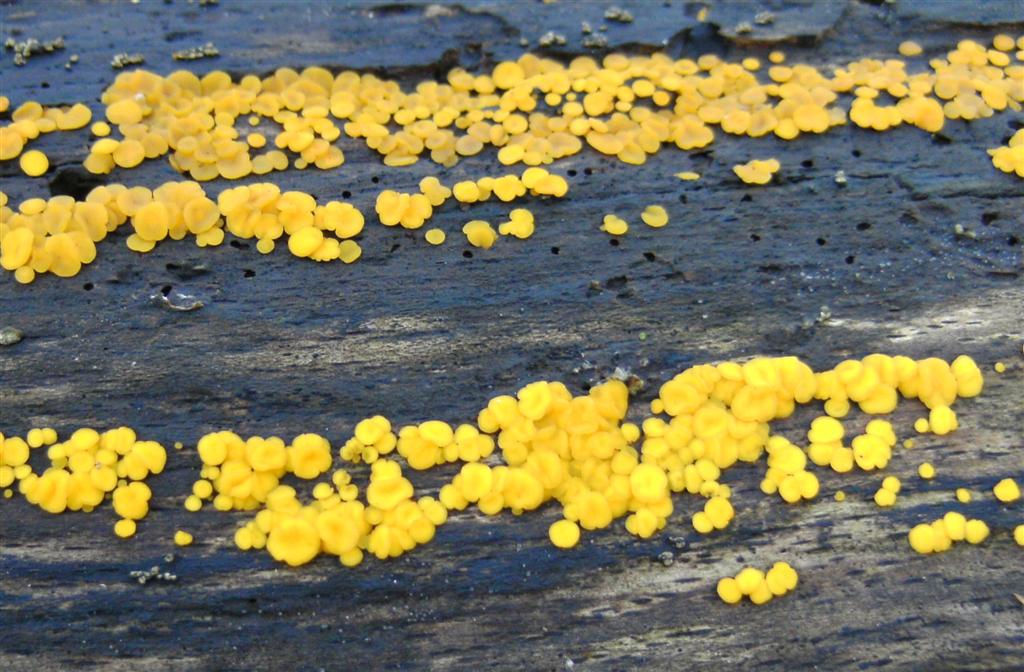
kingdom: Fungi
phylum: Ascomycota
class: Leotiomycetes
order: Helotiales
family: Pezizellaceae
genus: Calycina
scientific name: Calycina citrina
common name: almindelig gulskive
